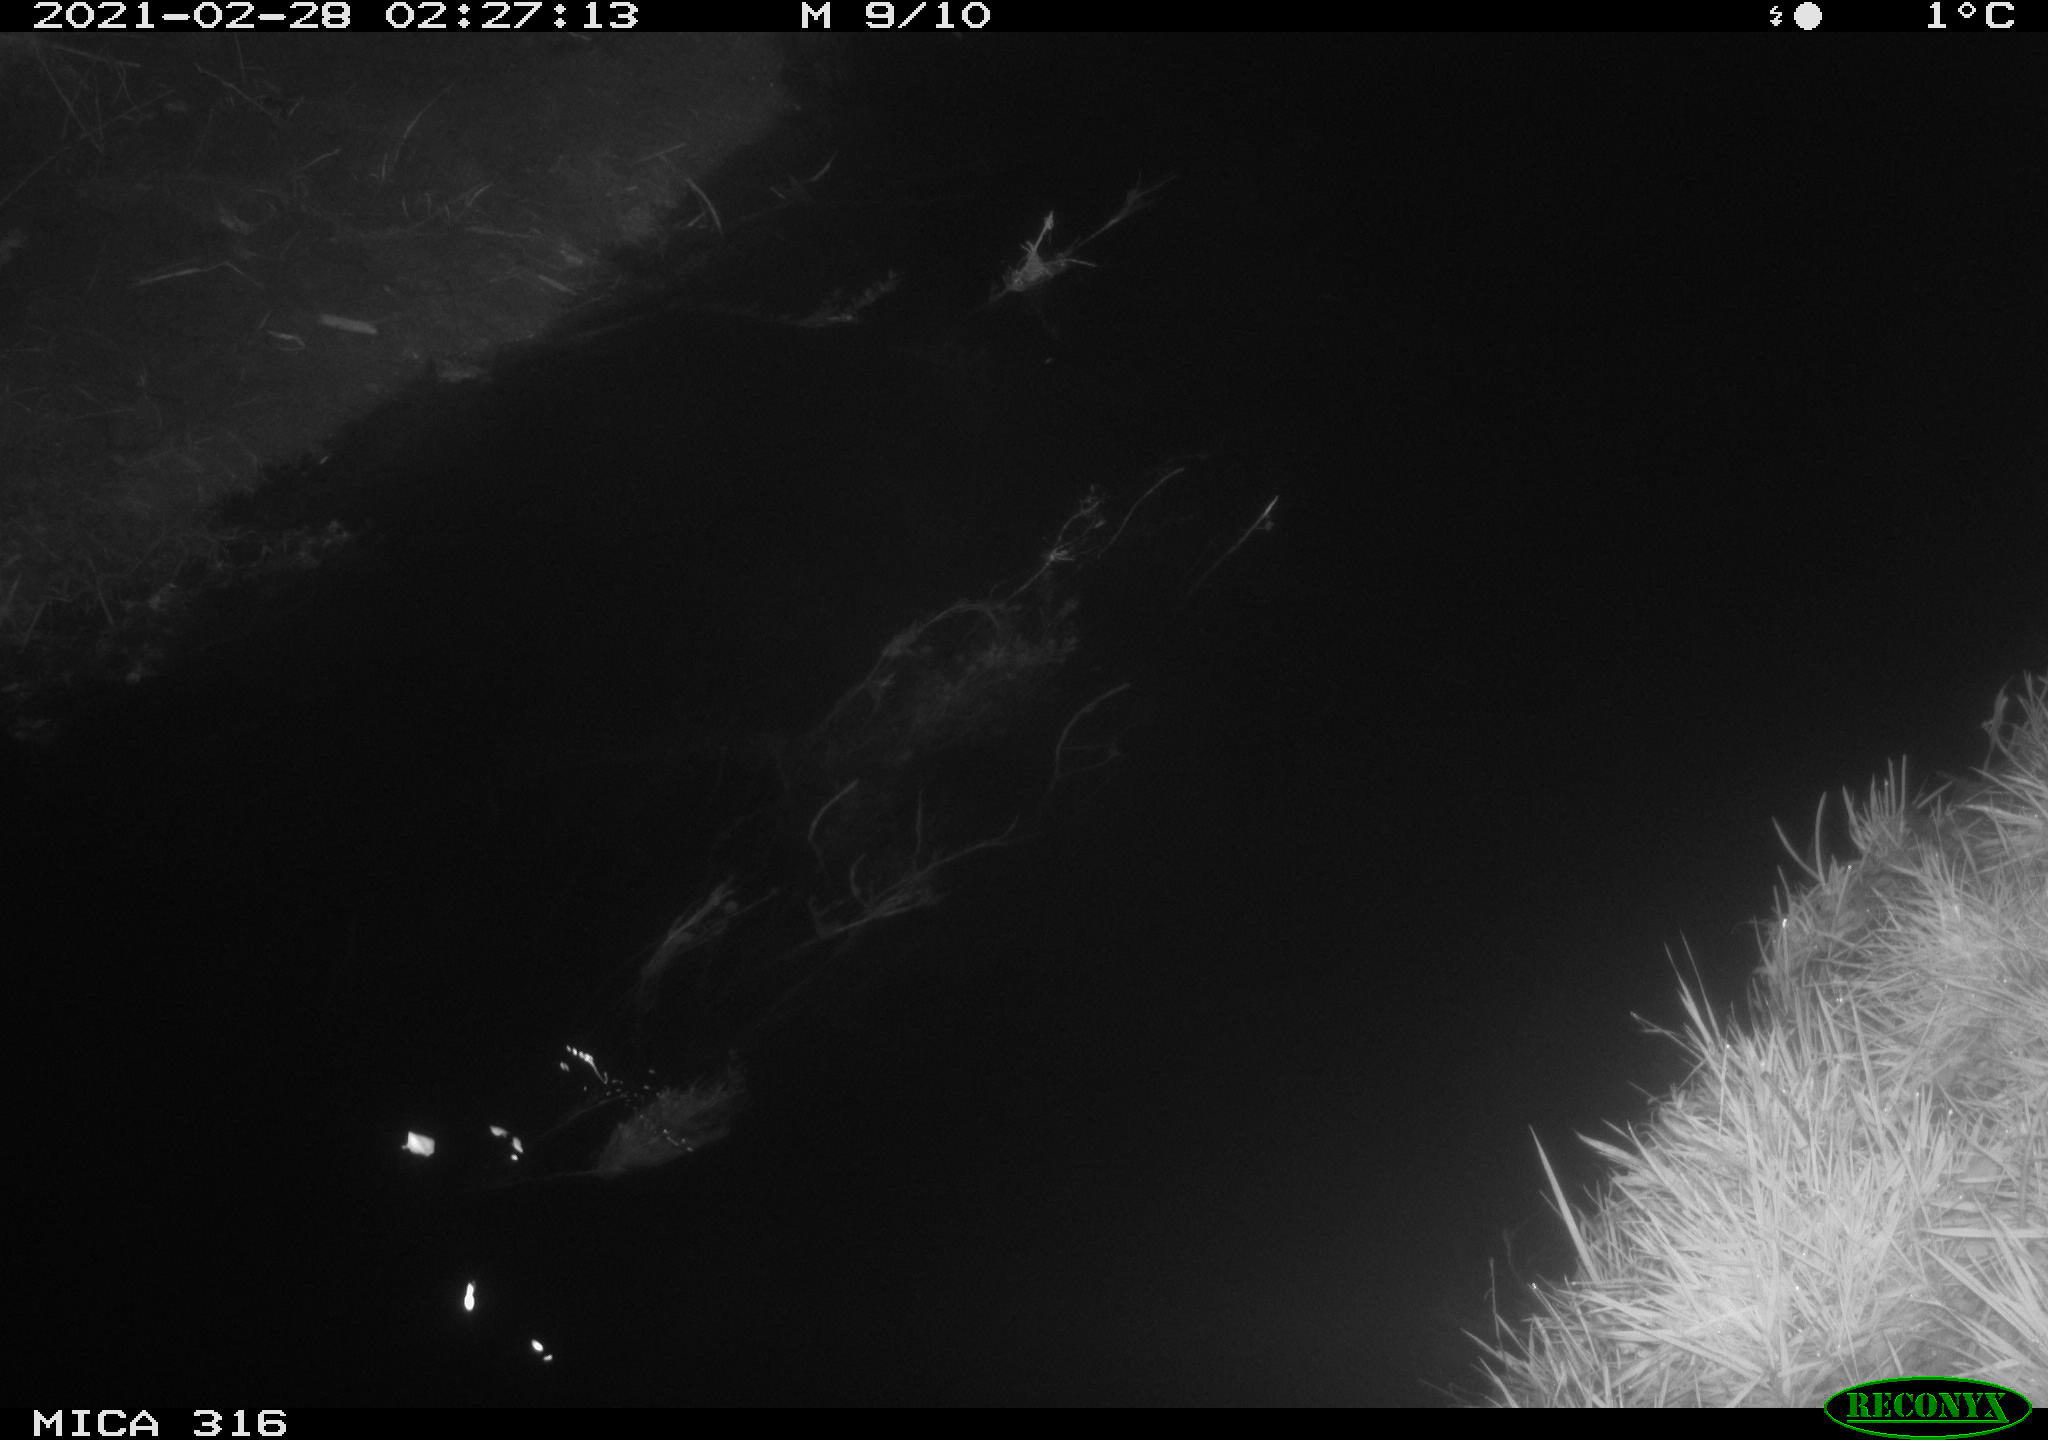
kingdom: Animalia
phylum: Chordata
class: Aves
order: Anseriformes
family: Anatidae
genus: Anas
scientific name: Anas platyrhynchos
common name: Mallard
